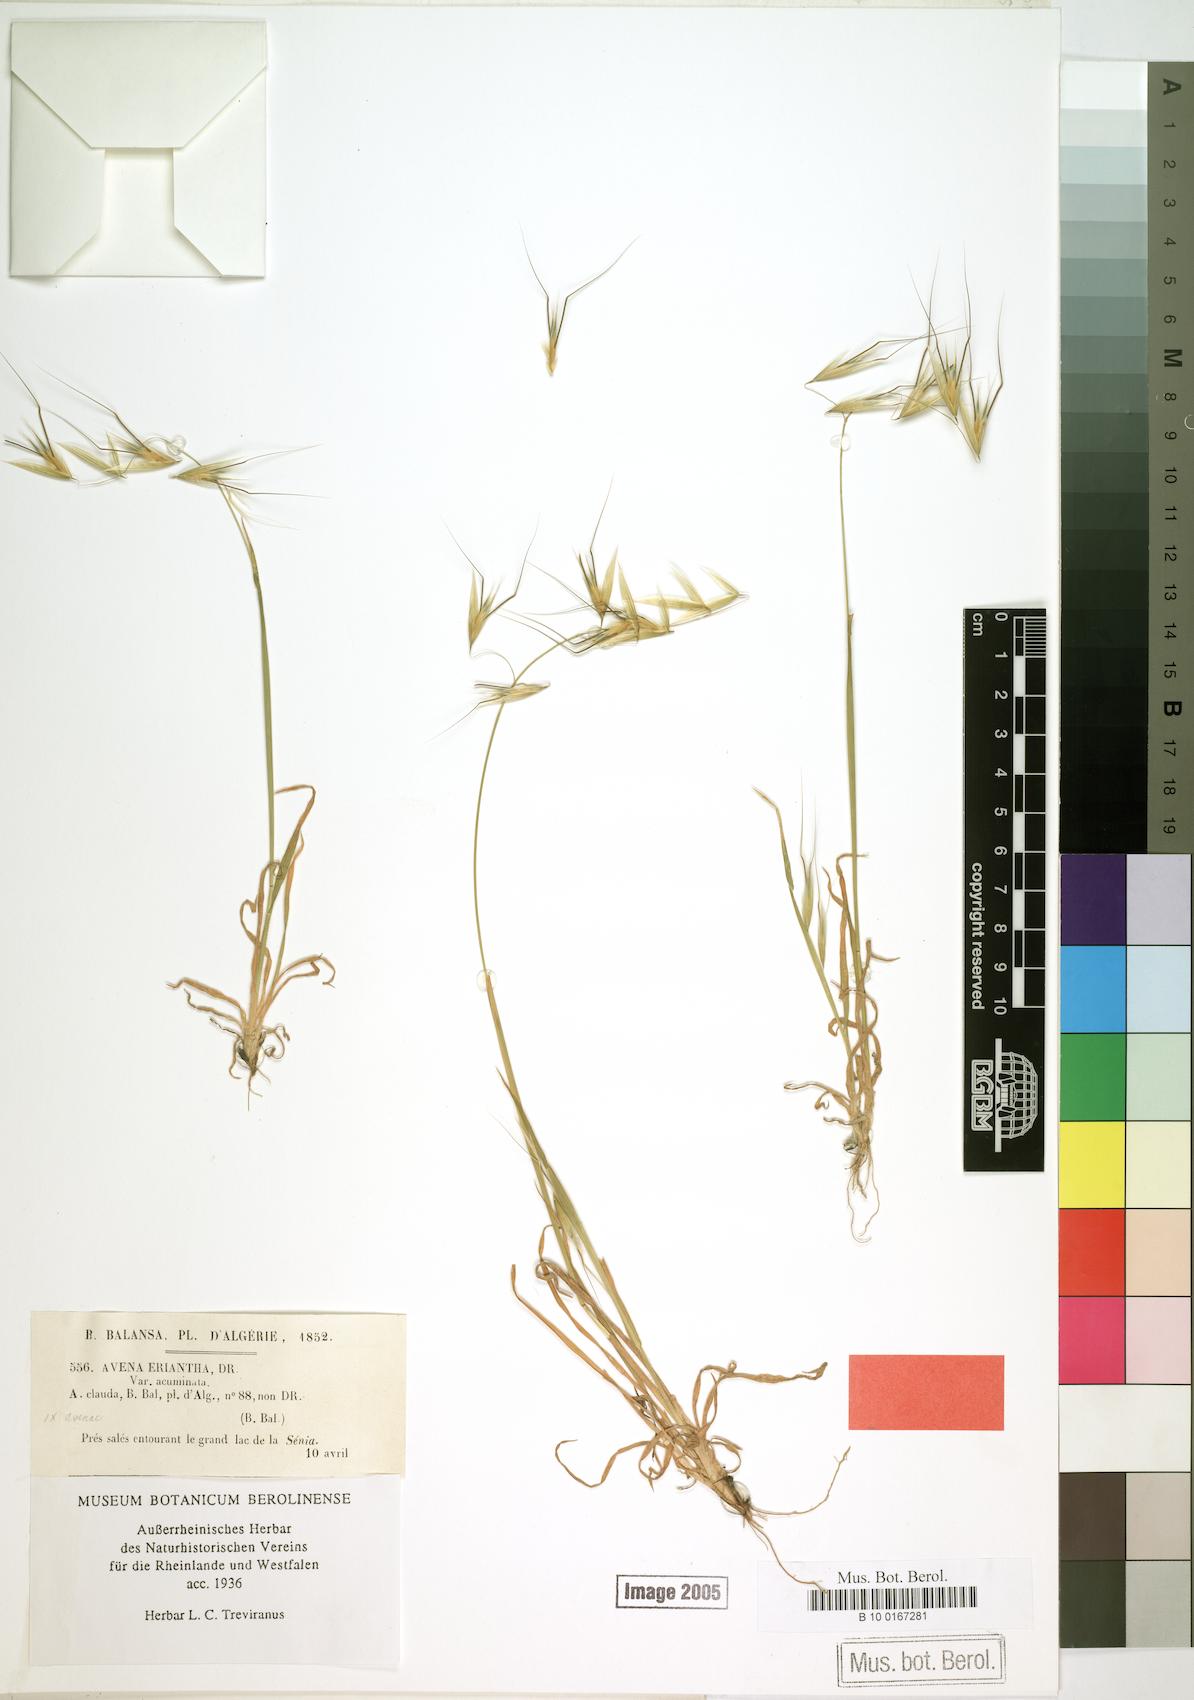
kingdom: Plantae
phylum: Tracheophyta
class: Liliopsida
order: Poales
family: Poaceae
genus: Avena
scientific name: Avena eriantha
